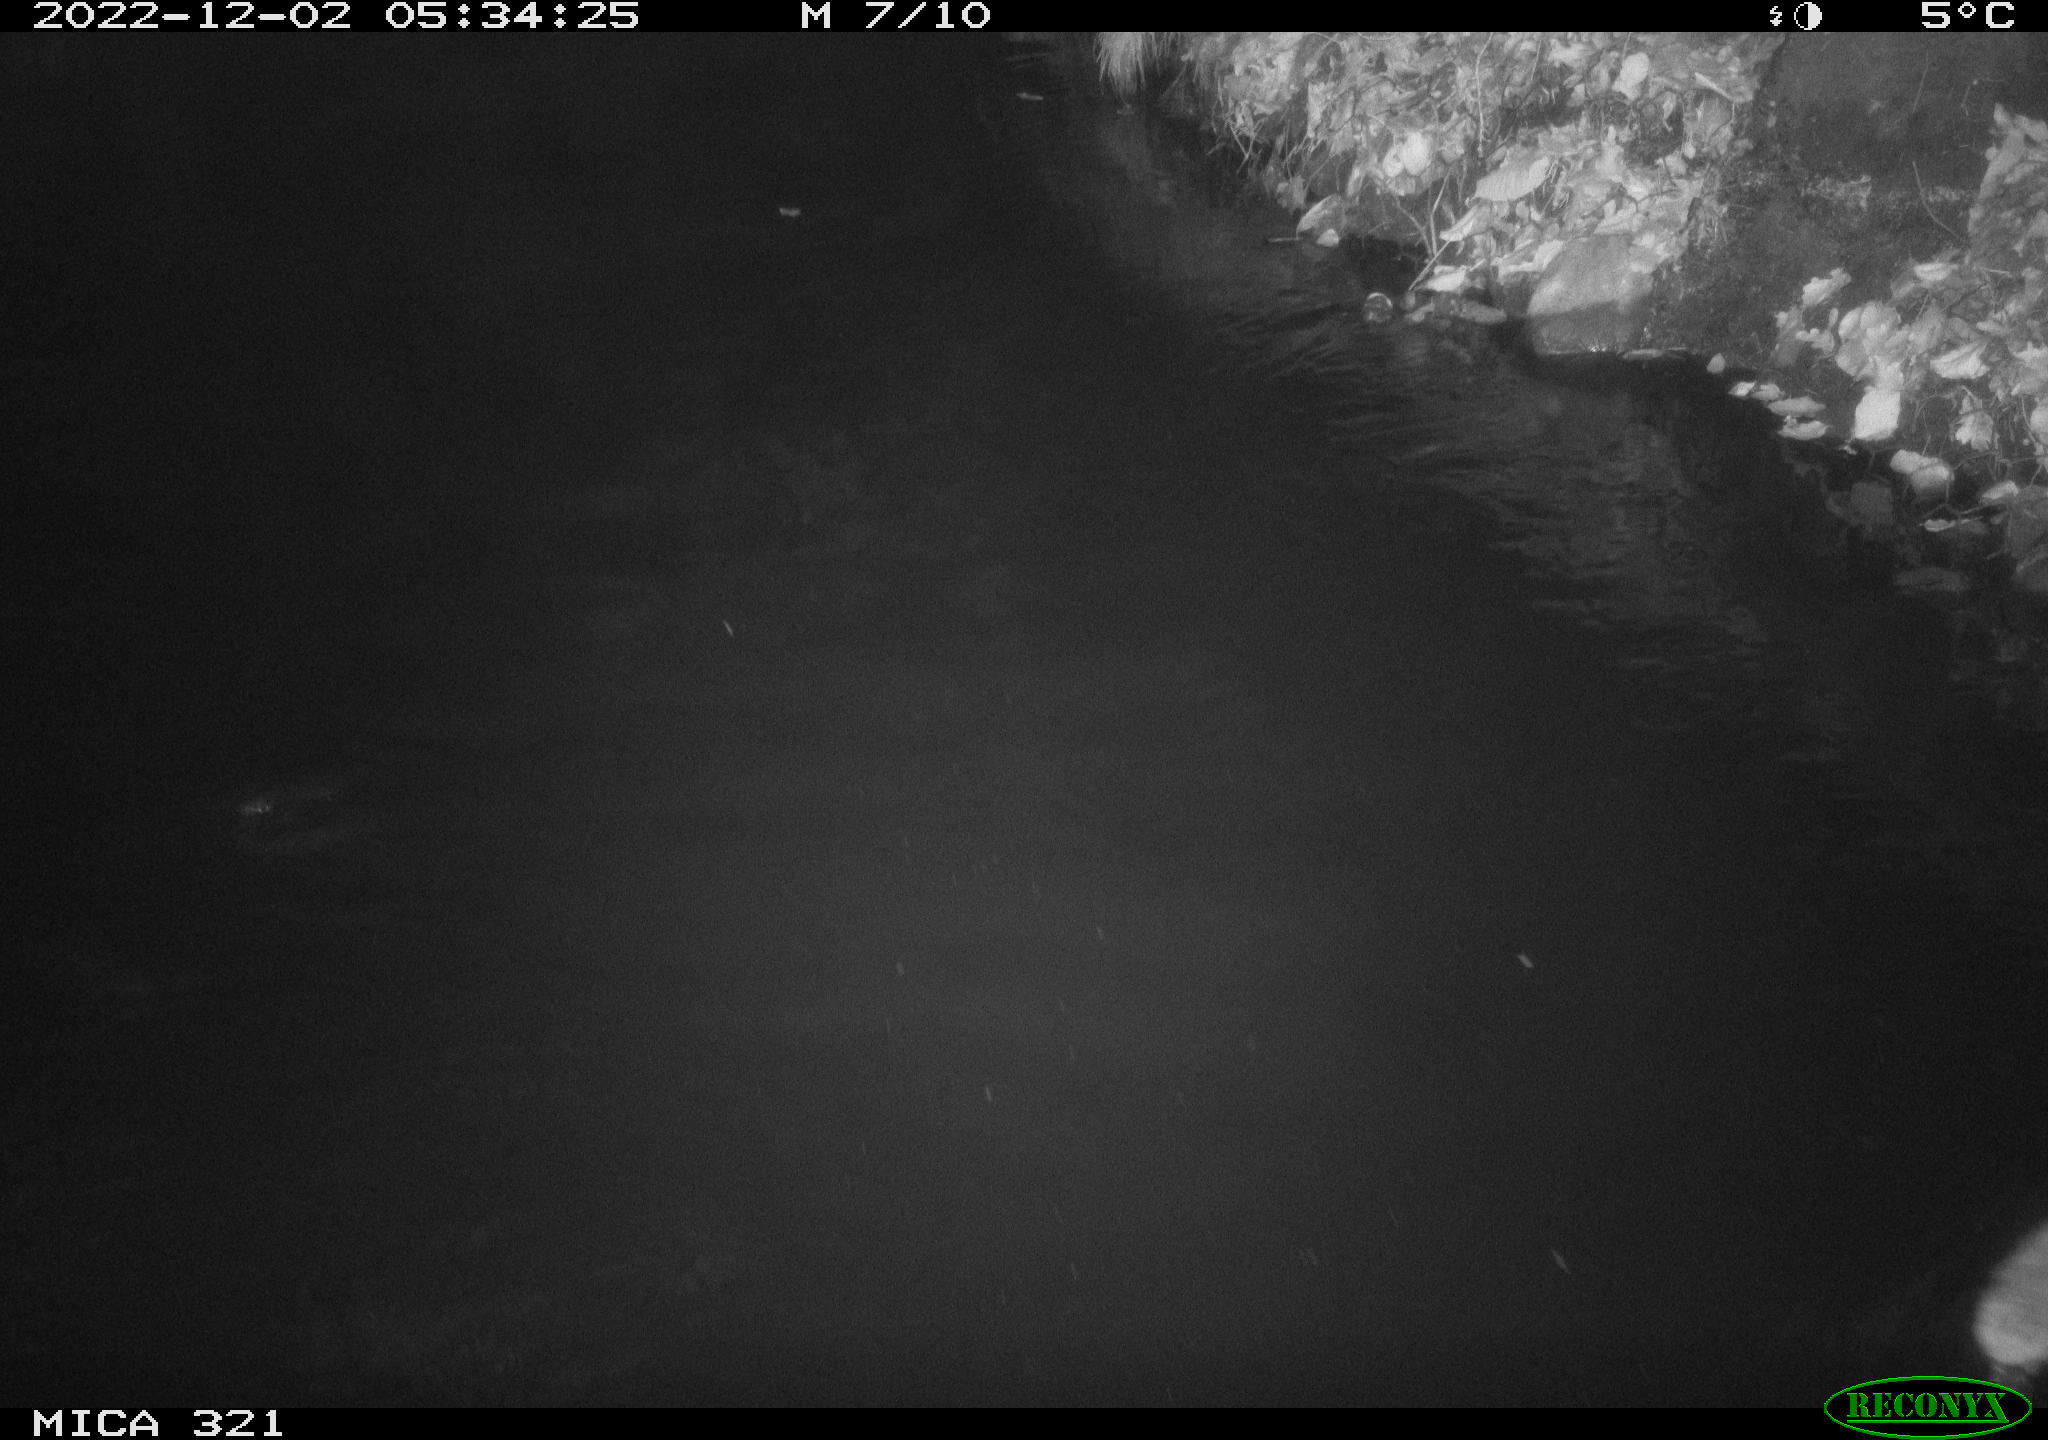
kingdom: Animalia
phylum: Chordata
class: Mammalia
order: Rodentia
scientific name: Rodentia
